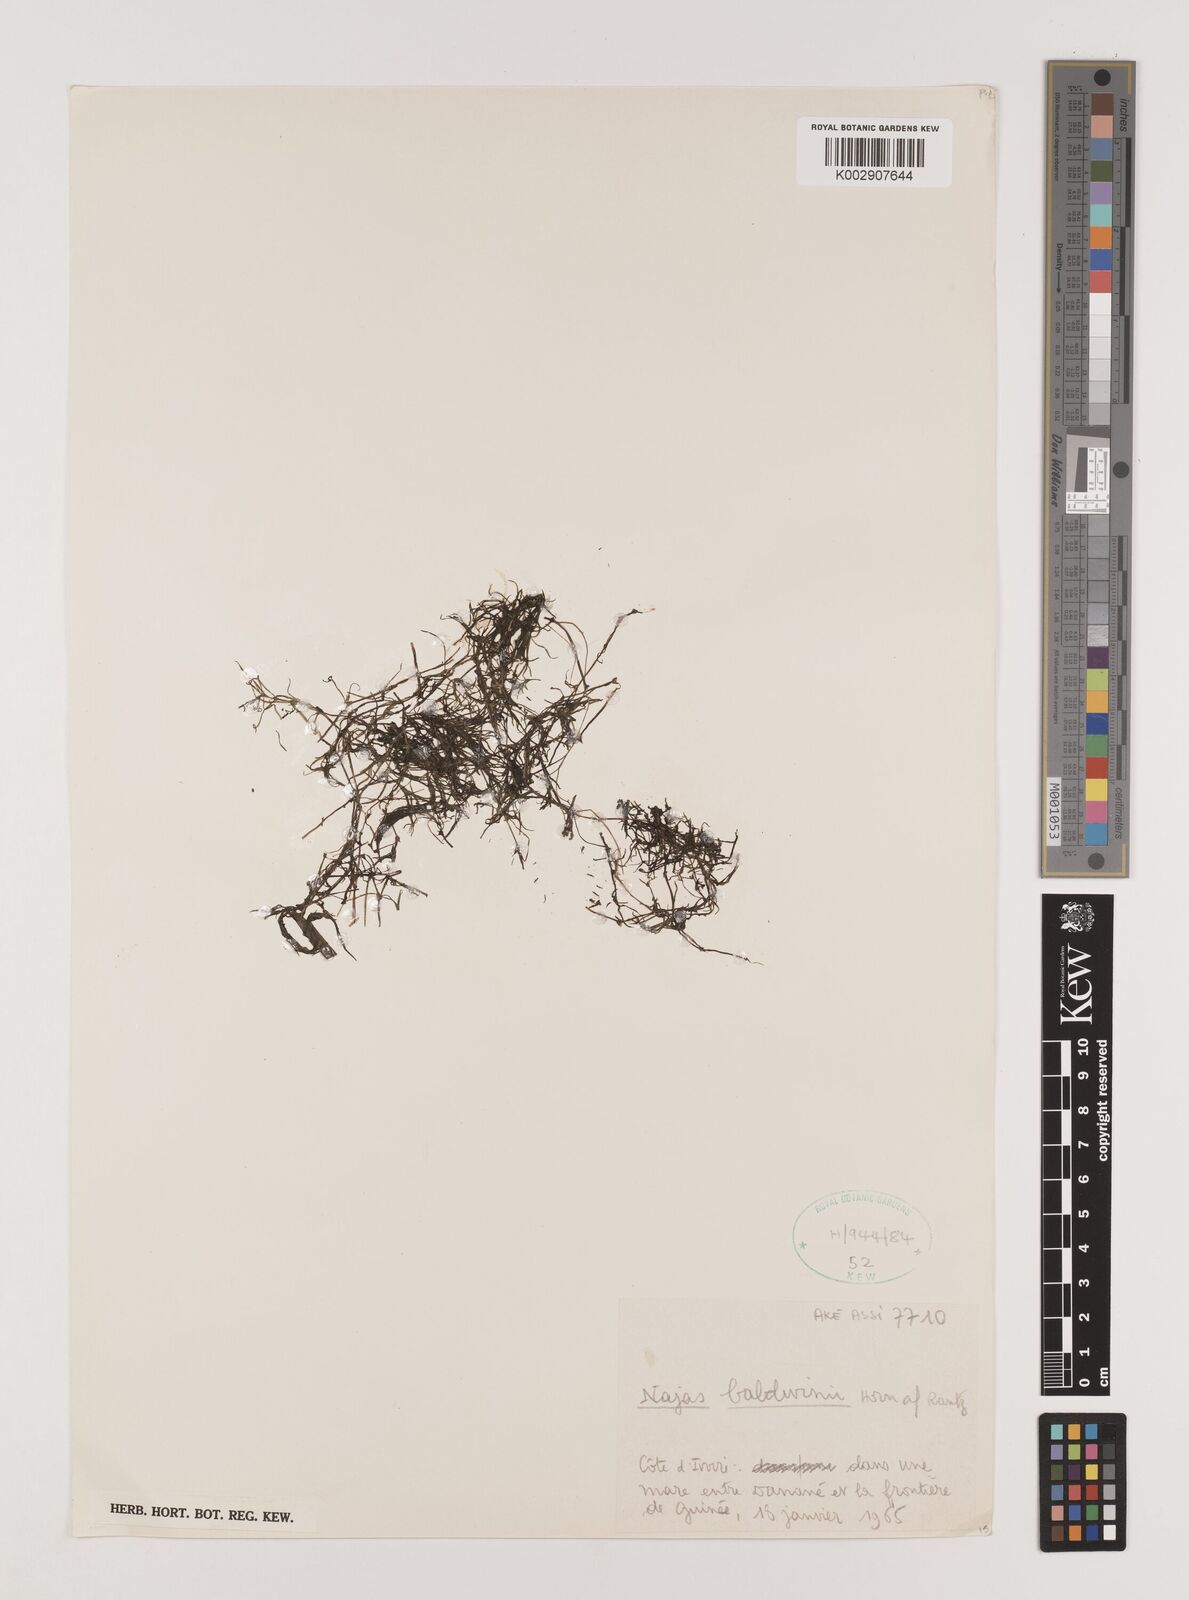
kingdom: Plantae
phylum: Tracheophyta
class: Liliopsida
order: Alismatales
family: Hydrocharitaceae
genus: Najas
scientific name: Najas baldwinii
